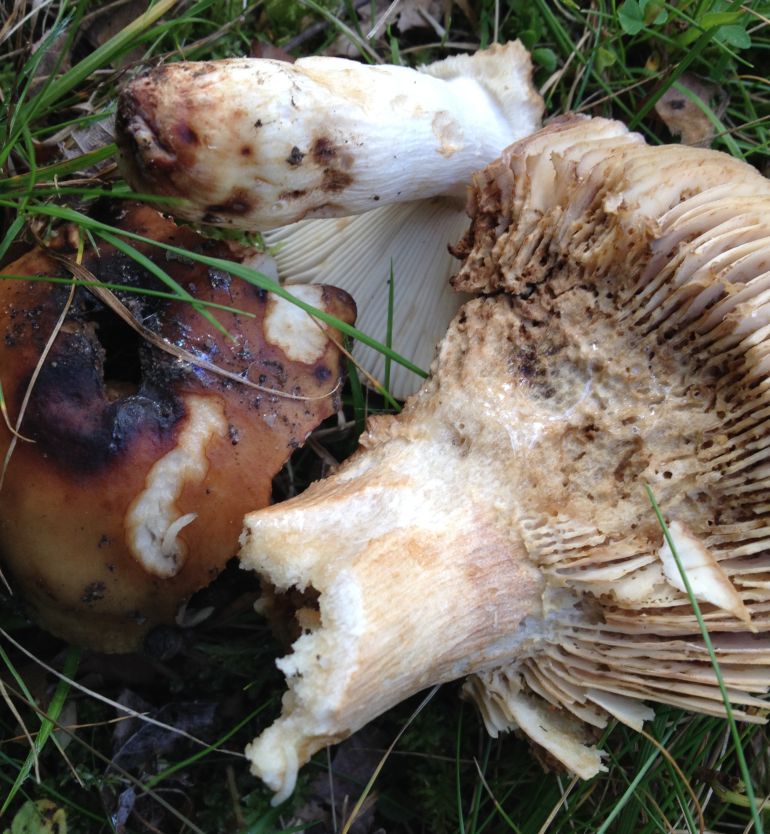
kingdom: Fungi
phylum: Basidiomycota
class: Agaricomycetes
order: Russulales
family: Russulaceae
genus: Russula
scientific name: Russula grata
